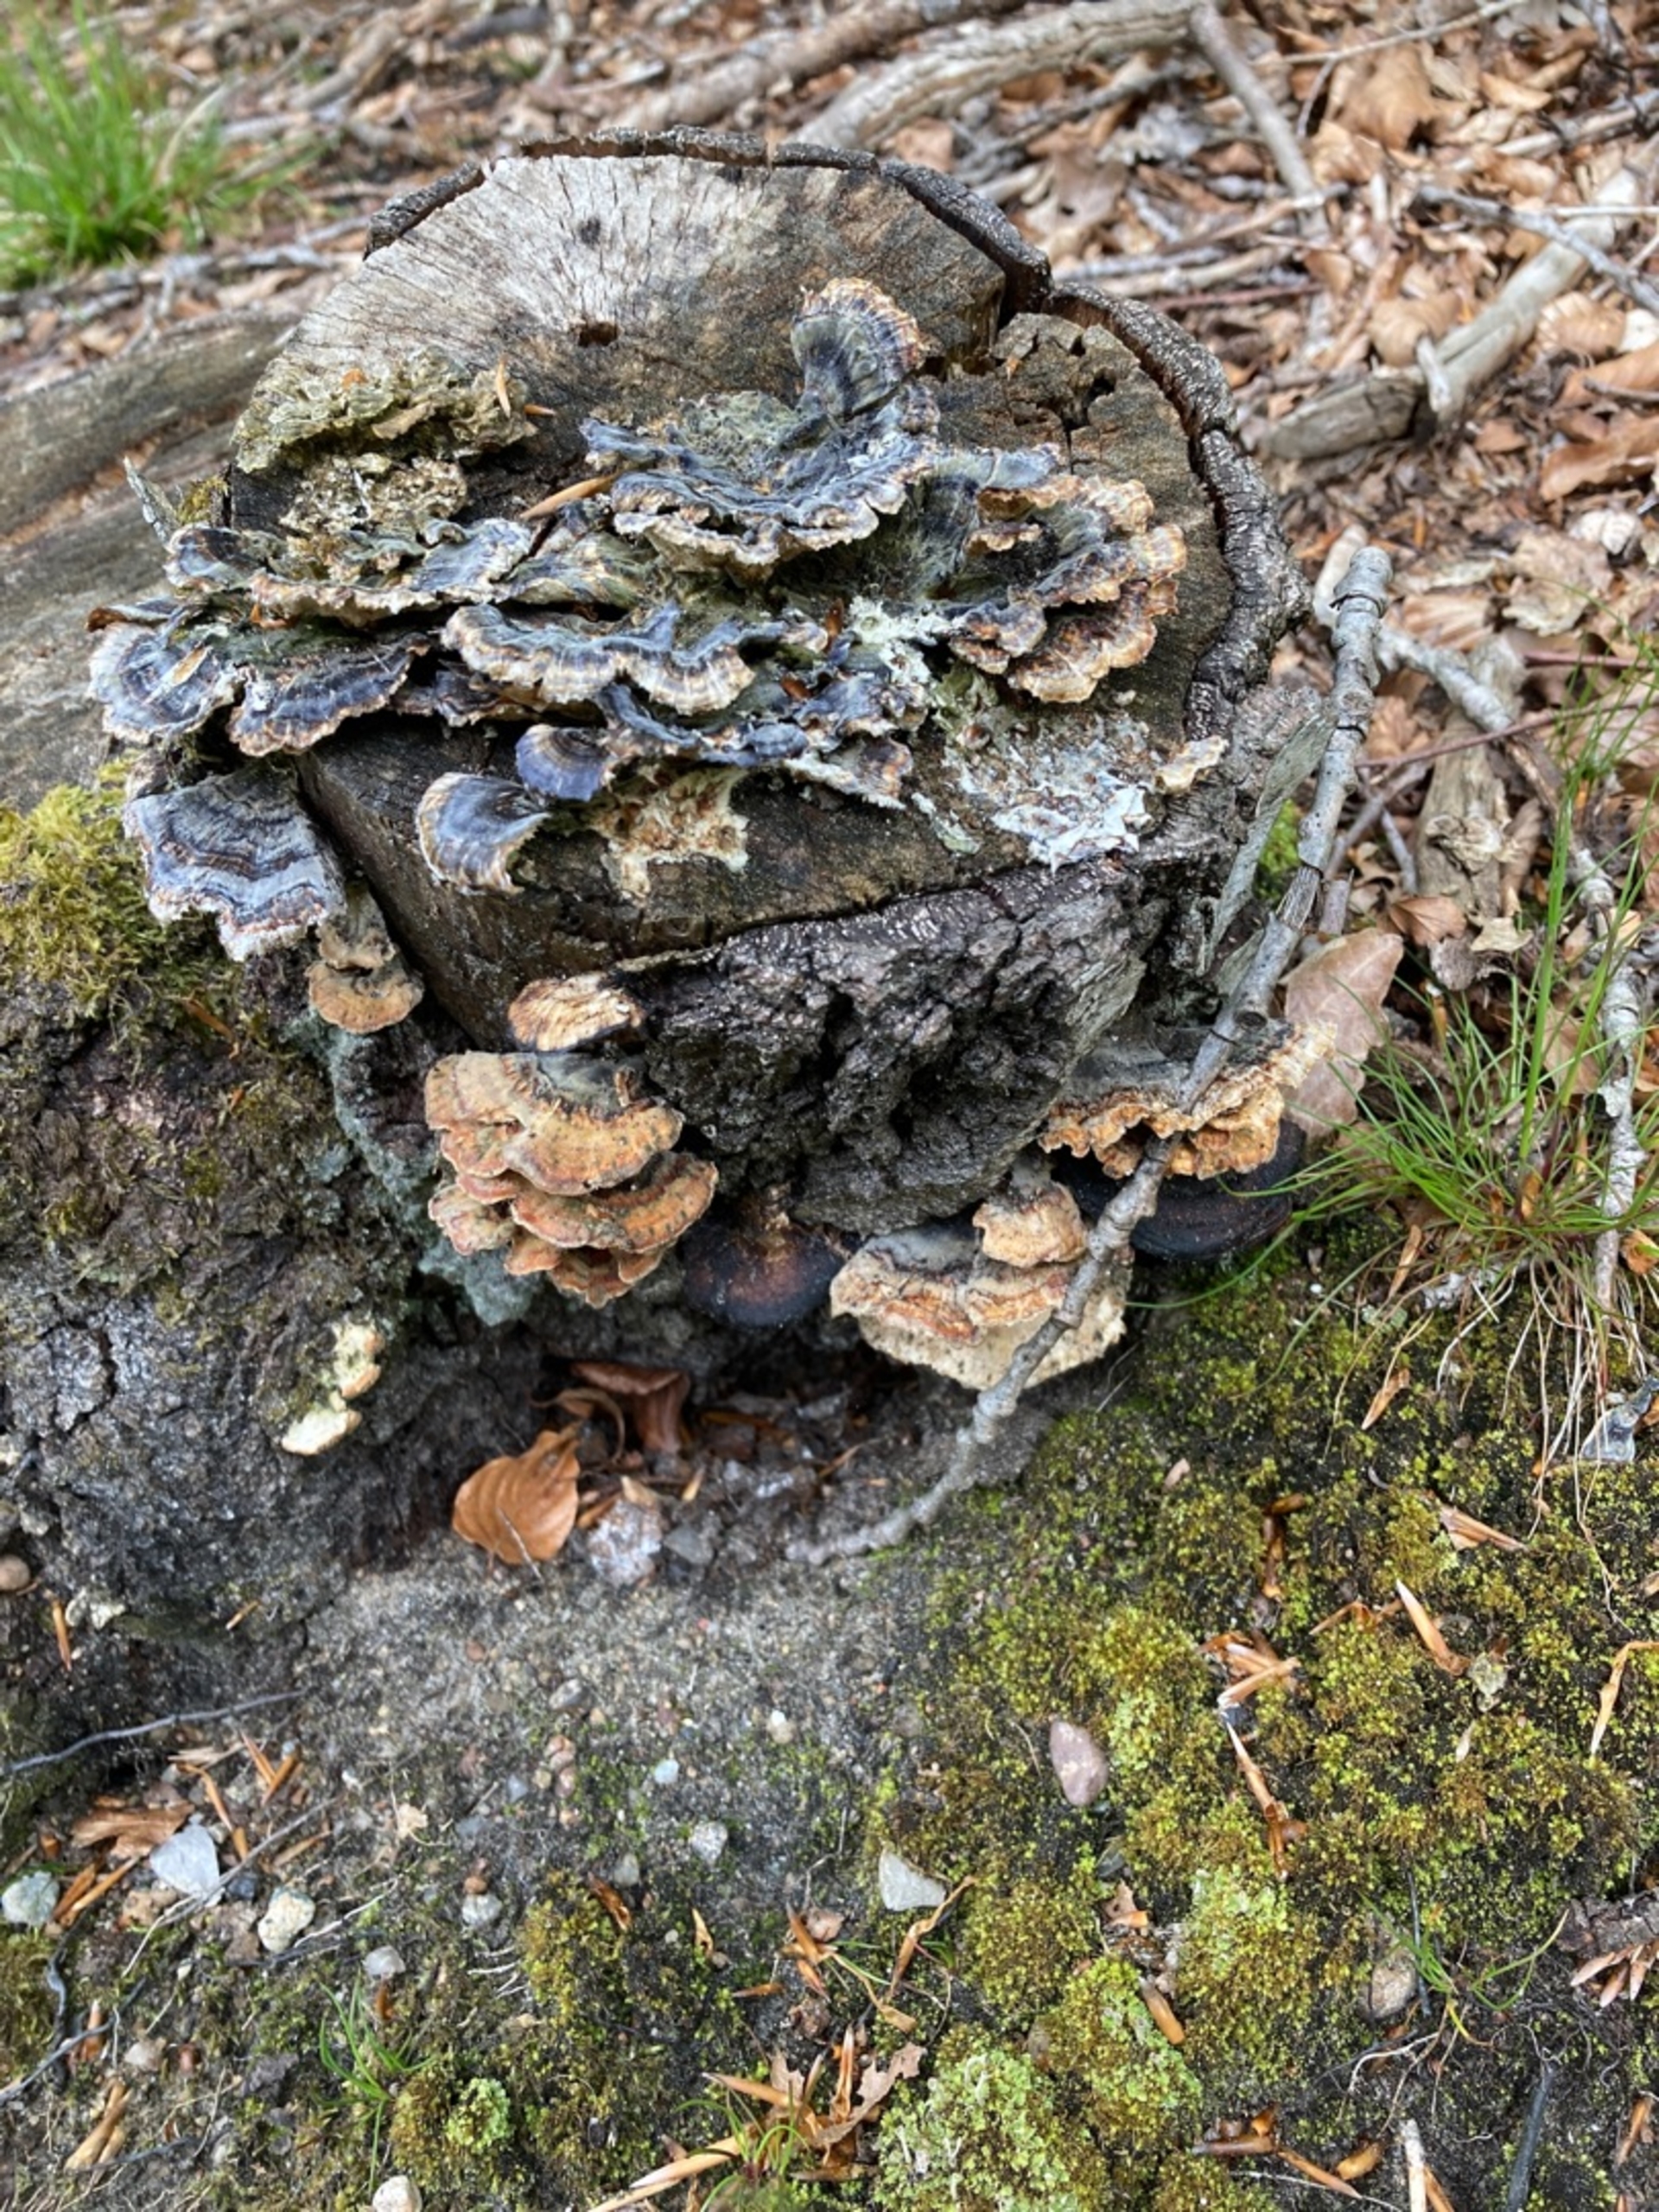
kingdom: Fungi
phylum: Basidiomycota
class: Agaricomycetes
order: Polyporales
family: Polyporaceae
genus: Trametes
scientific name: Trametes versicolor
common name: Broget læderporesvamp
